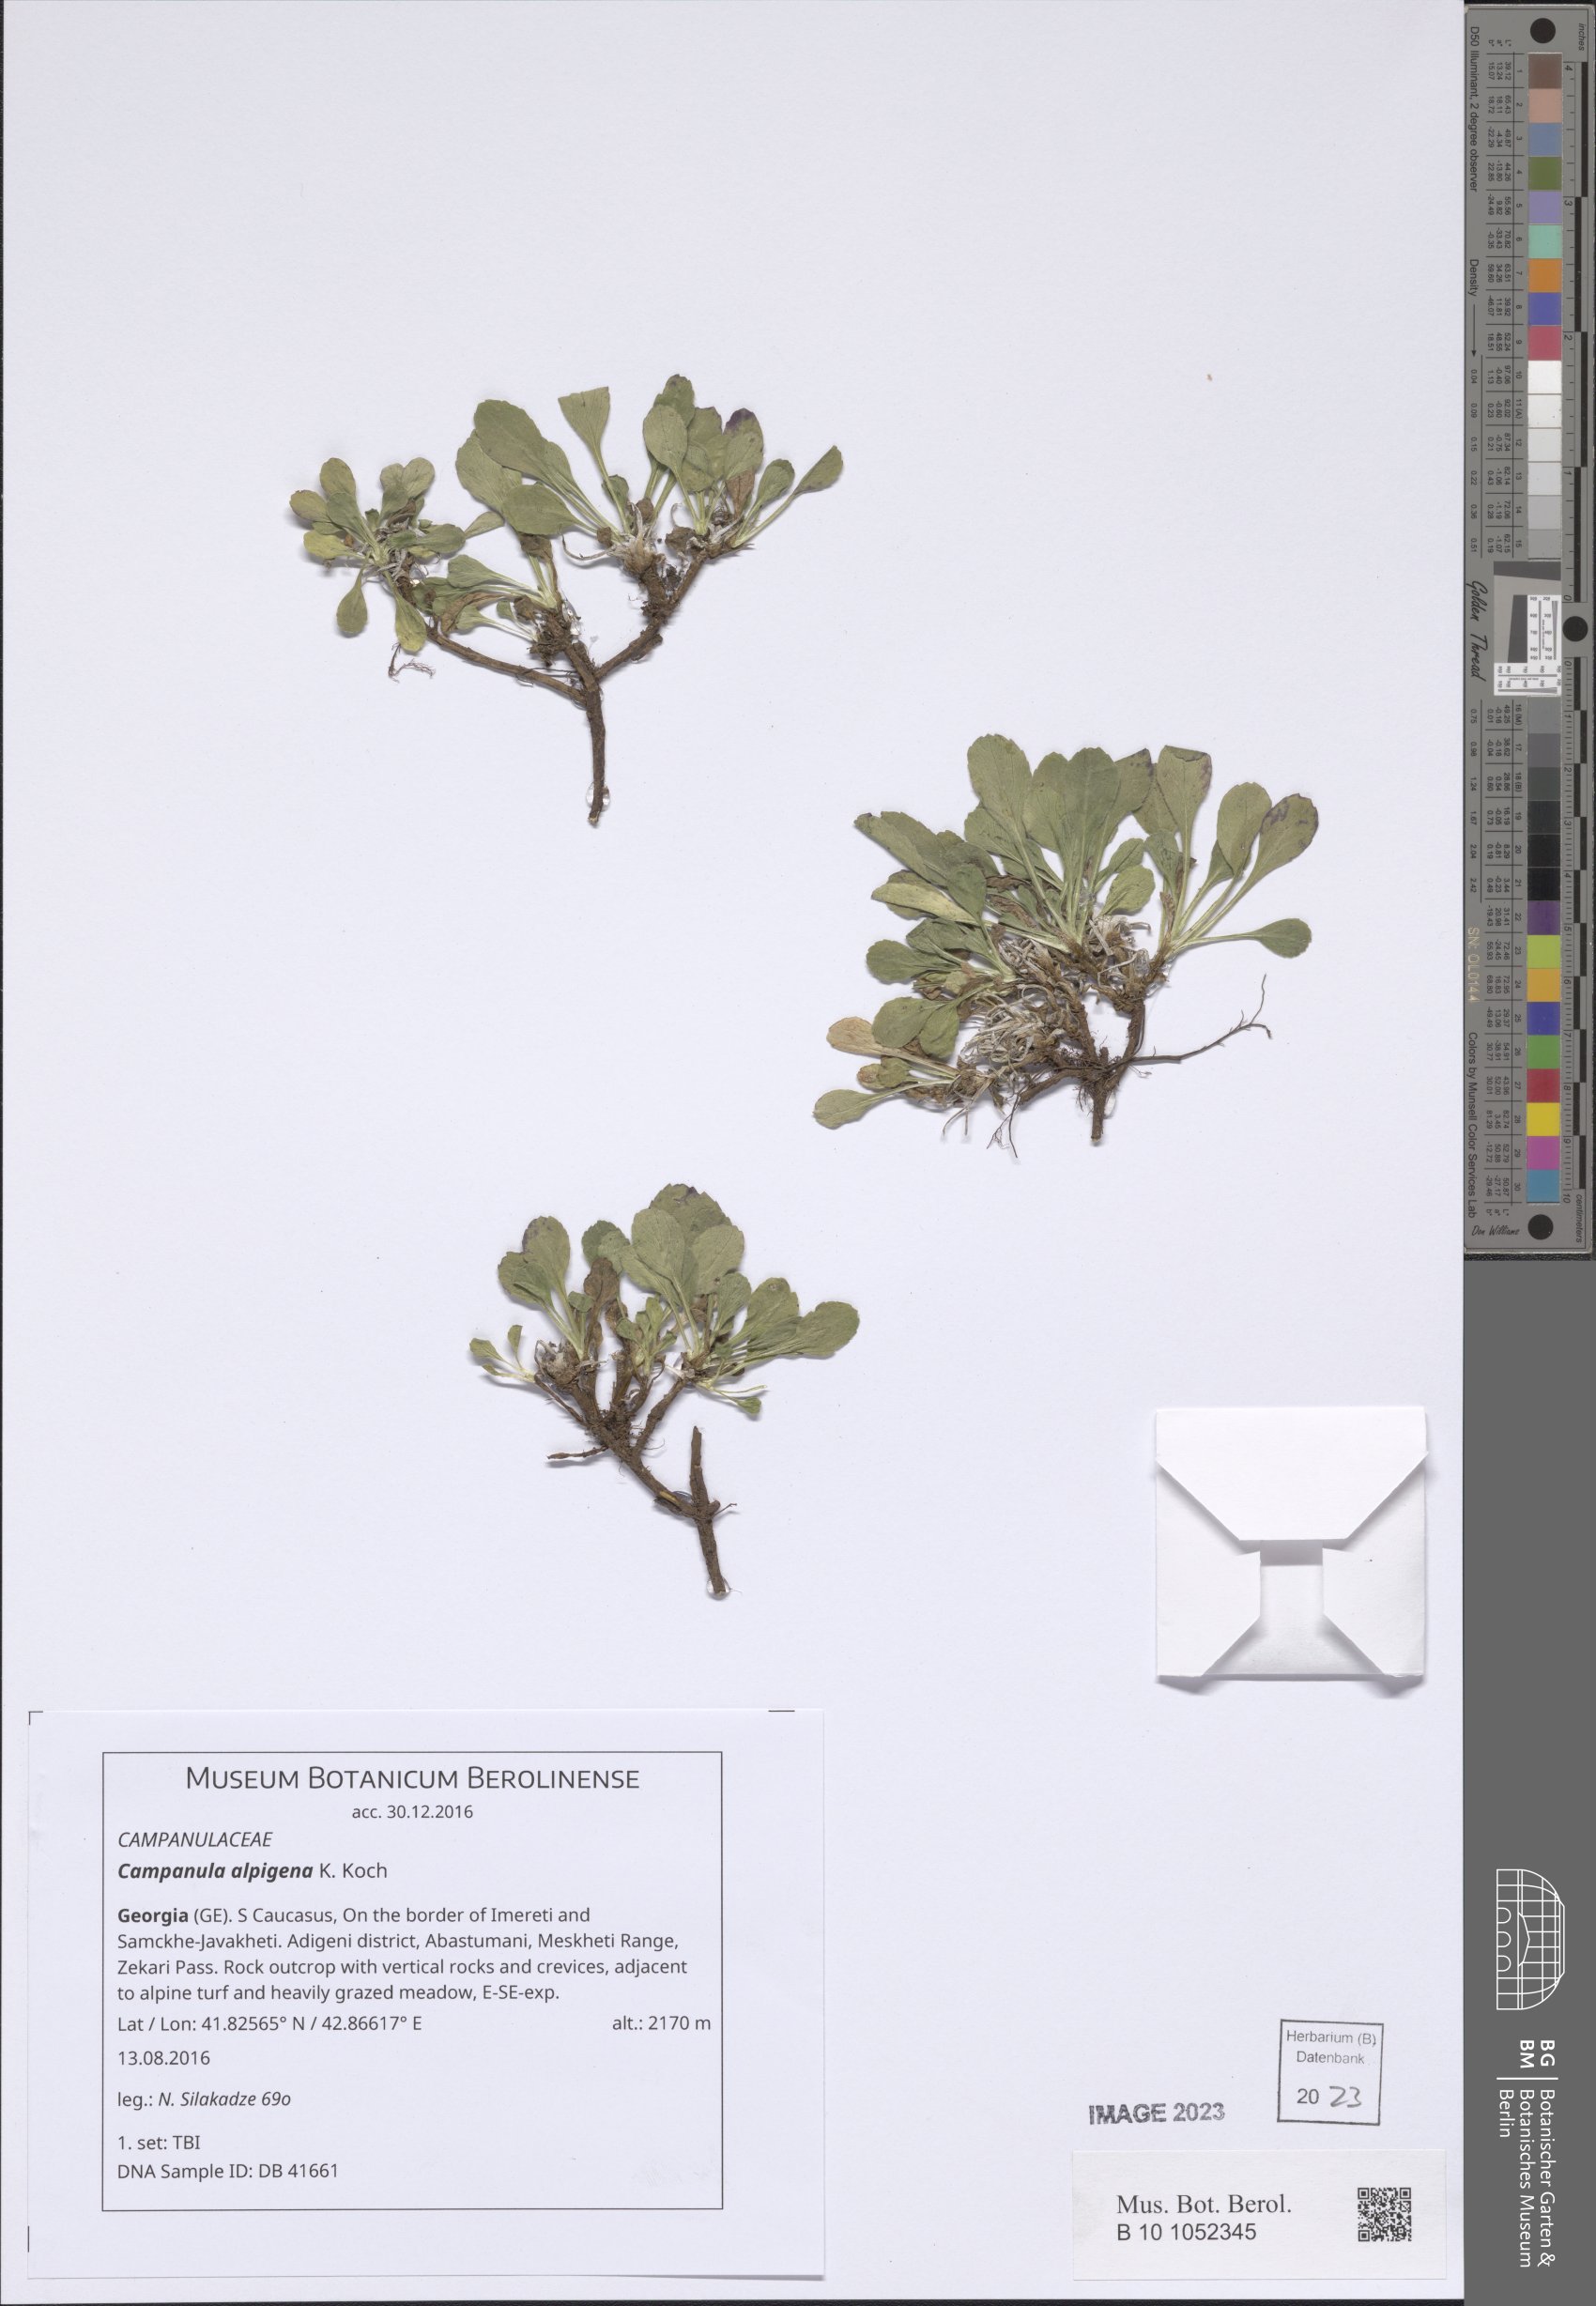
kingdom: Plantae
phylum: Tracheophyta
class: Magnoliopsida
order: Asterales
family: Campanulaceae
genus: Campanula
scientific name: Campanula saxifraga
